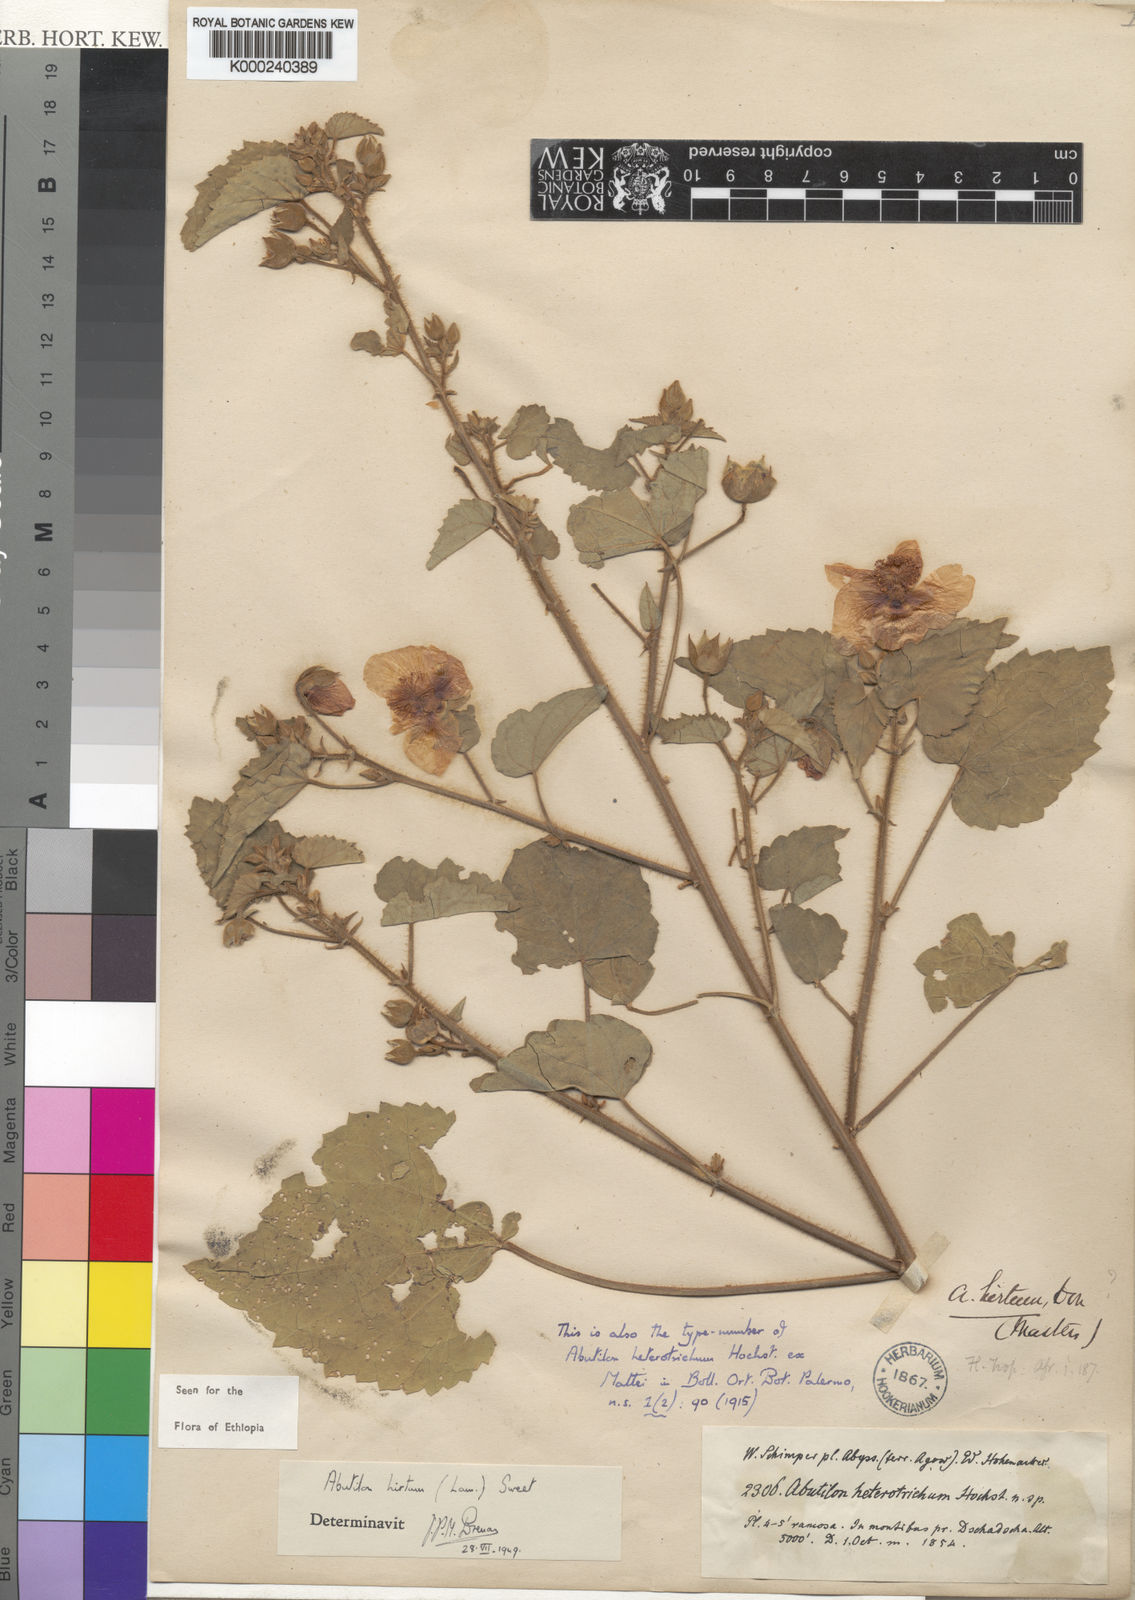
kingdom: Plantae
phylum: Tracheophyta
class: Magnoliopsida
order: Malvales
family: Malvaceae
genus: Abutilon
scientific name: Abutilon hirtum
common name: Florida keys indian mallow
